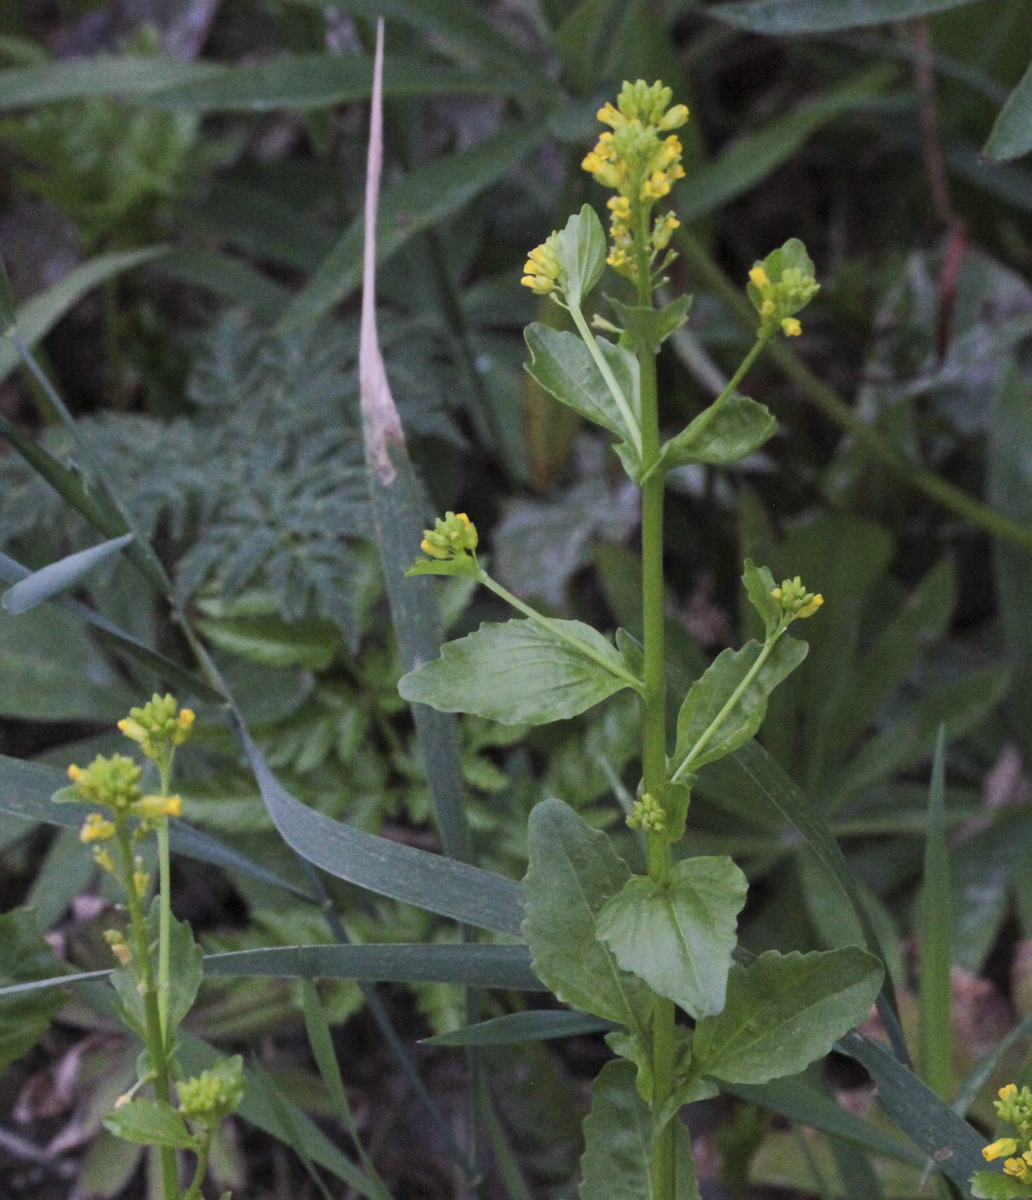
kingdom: Plantae
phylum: Tracheophyta
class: Magnoliopsida
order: Brassicales
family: Brassicaceae
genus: Erysimum
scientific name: Erysimum cheiranthoides
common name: Treacle mustard
